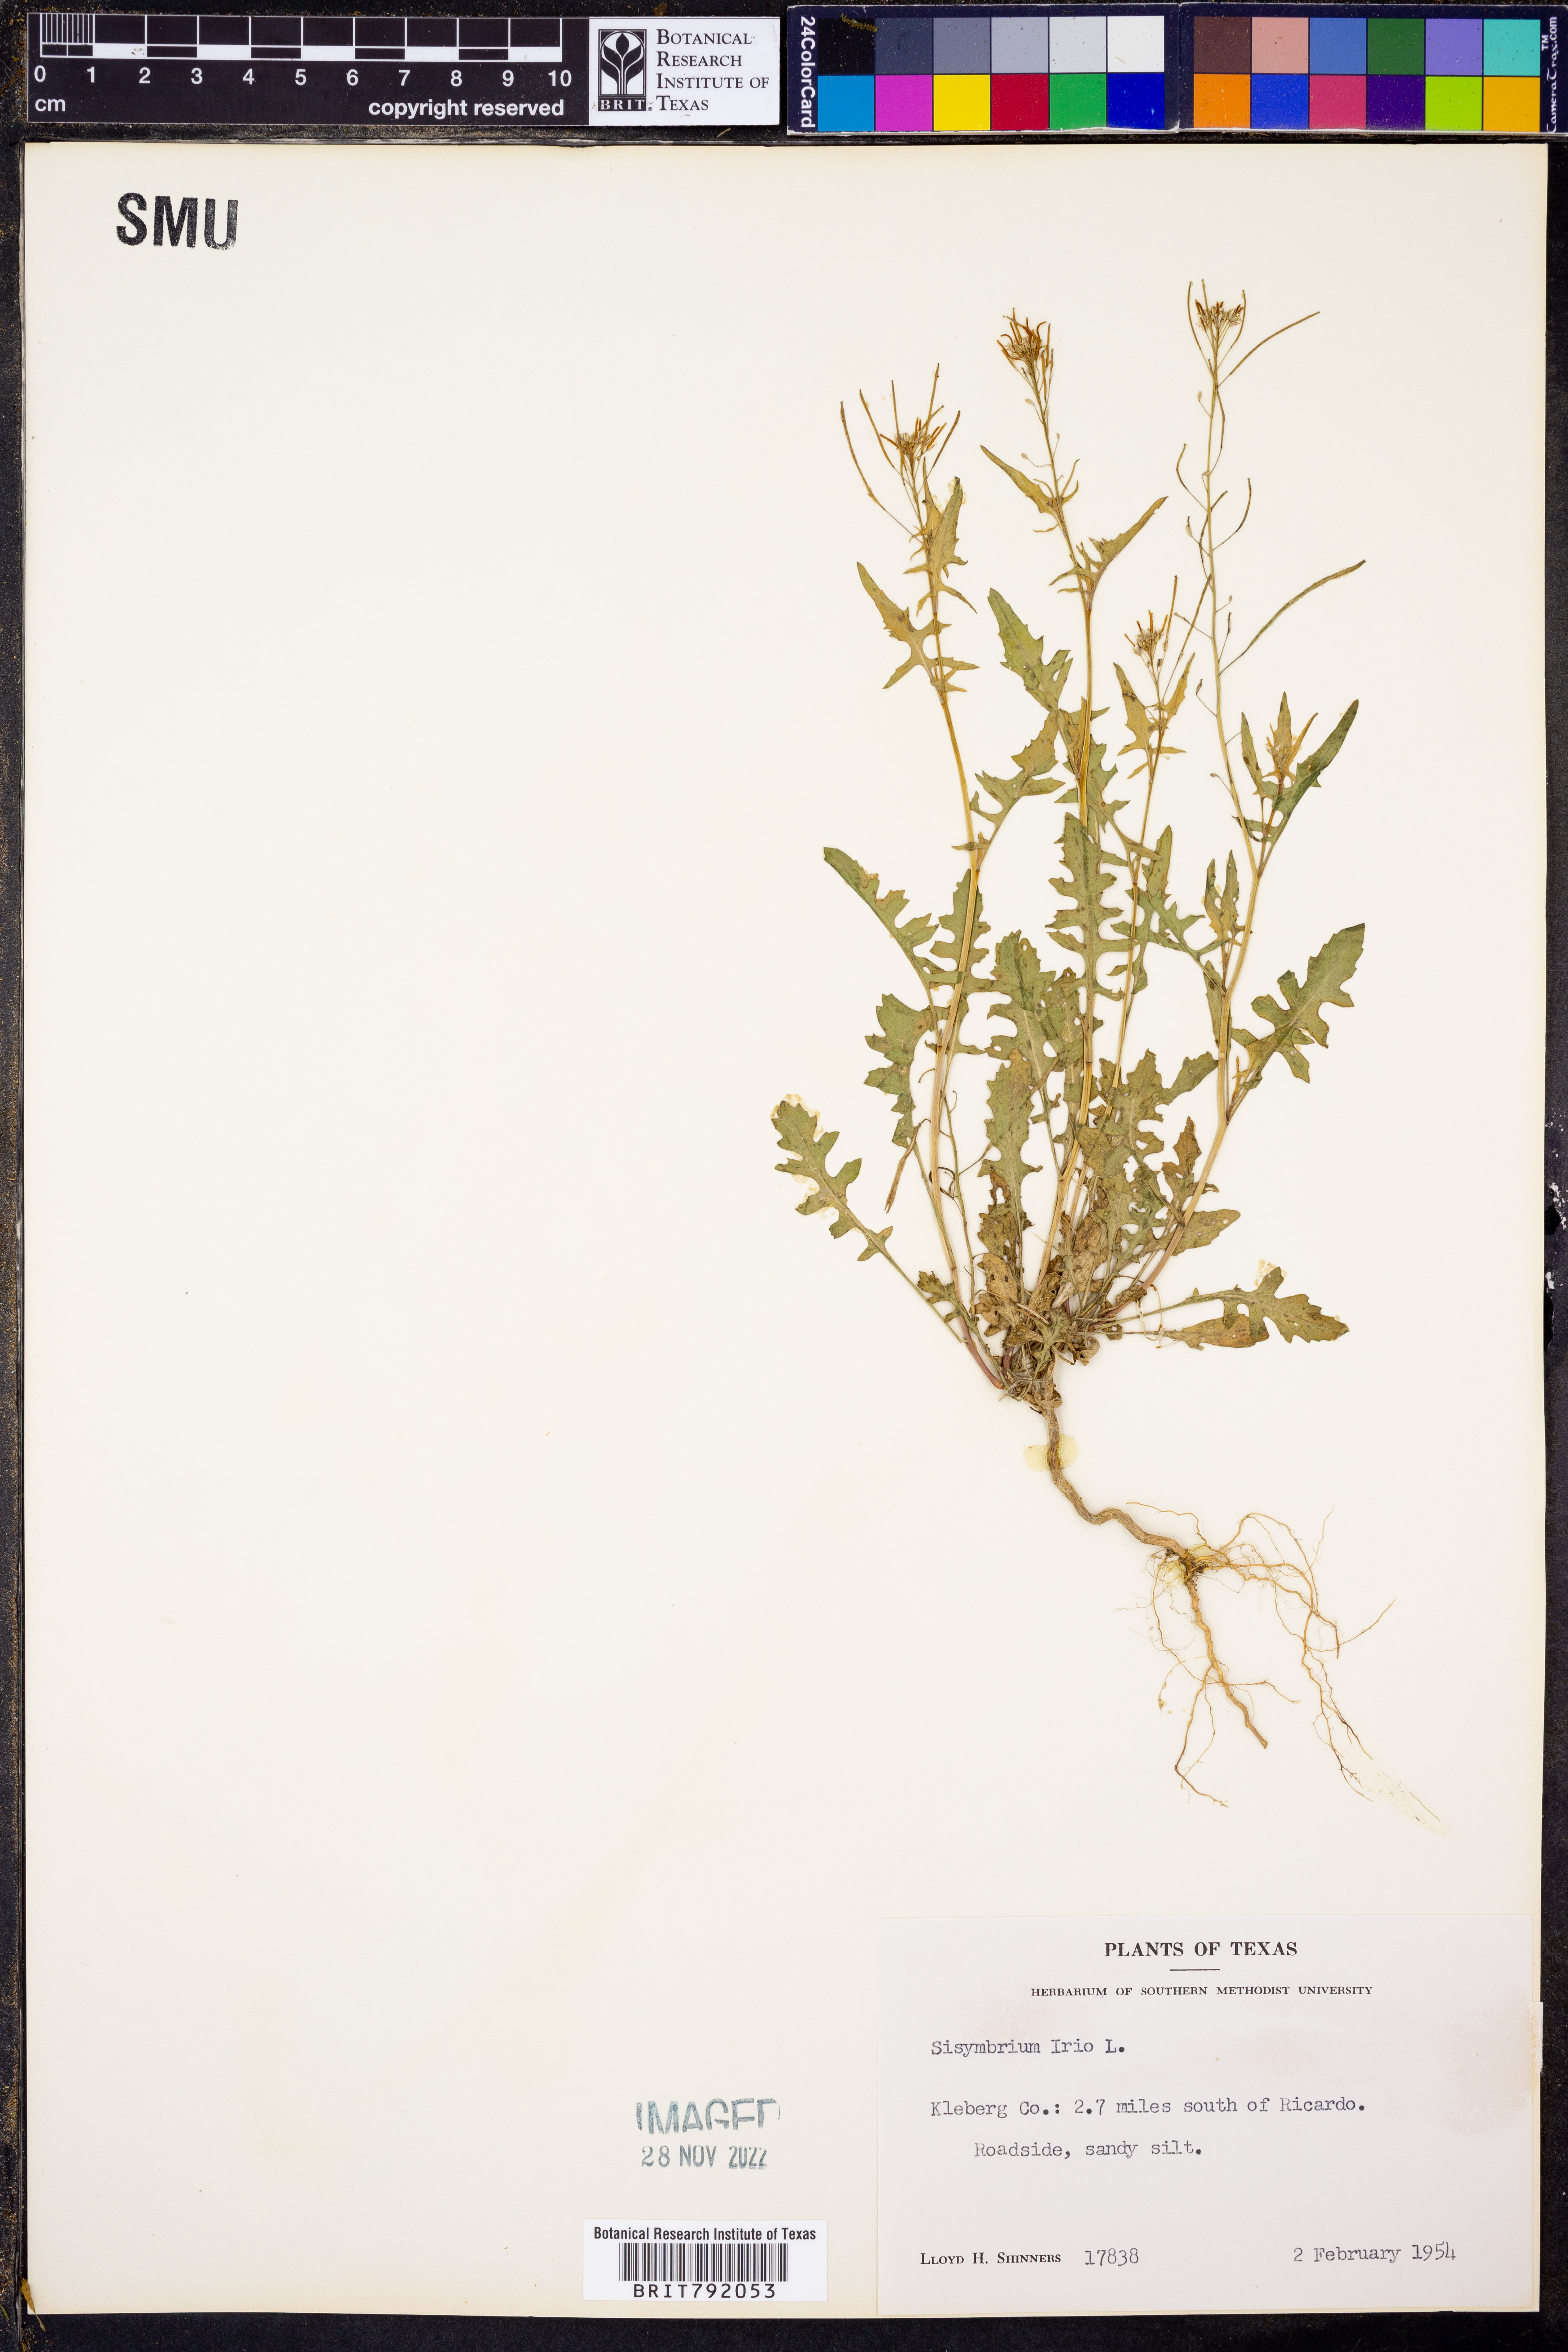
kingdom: Plantae
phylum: Tracheophyta
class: Magnoliopsida
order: Brassicales
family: Brassicaceae
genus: Sisymbrium
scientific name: Sisymbrium irio
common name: London rocket
